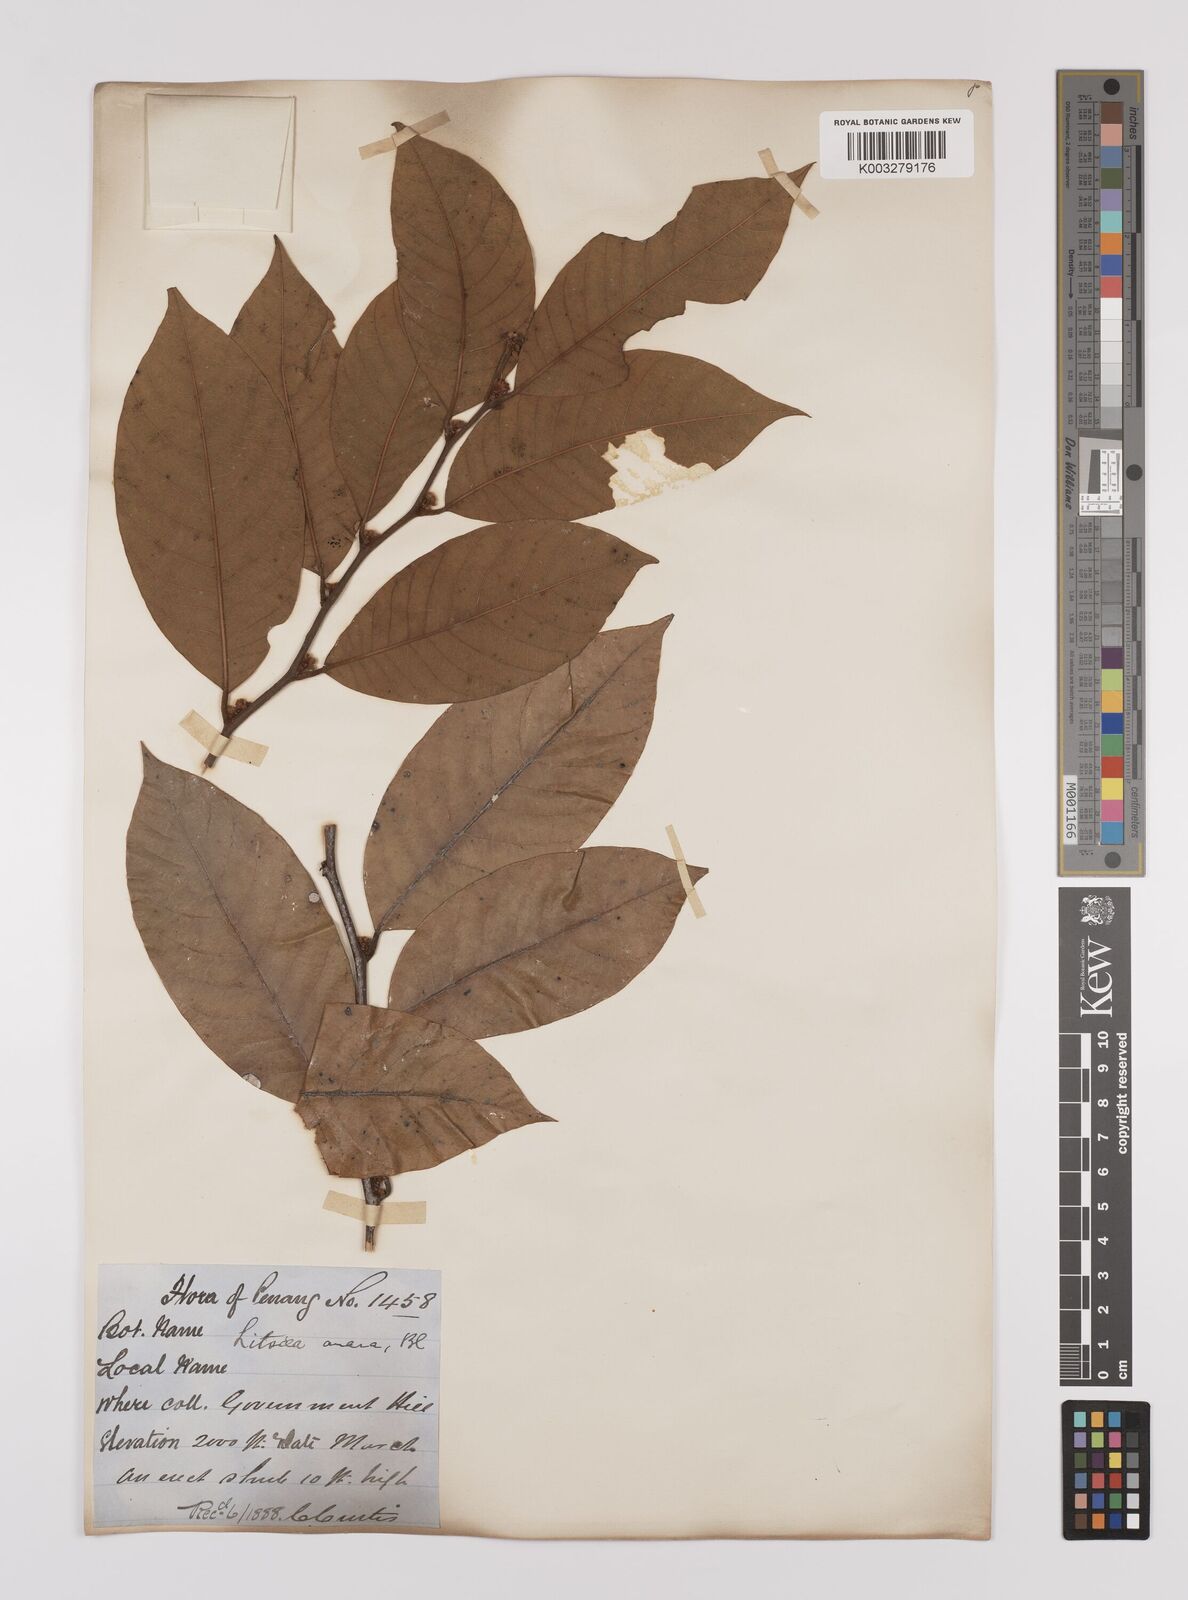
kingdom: Plantae
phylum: Tracheophyta
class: Magnoliopsida
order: Laurales
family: Lauraceae
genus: Litsea
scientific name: Litsea umbellata
